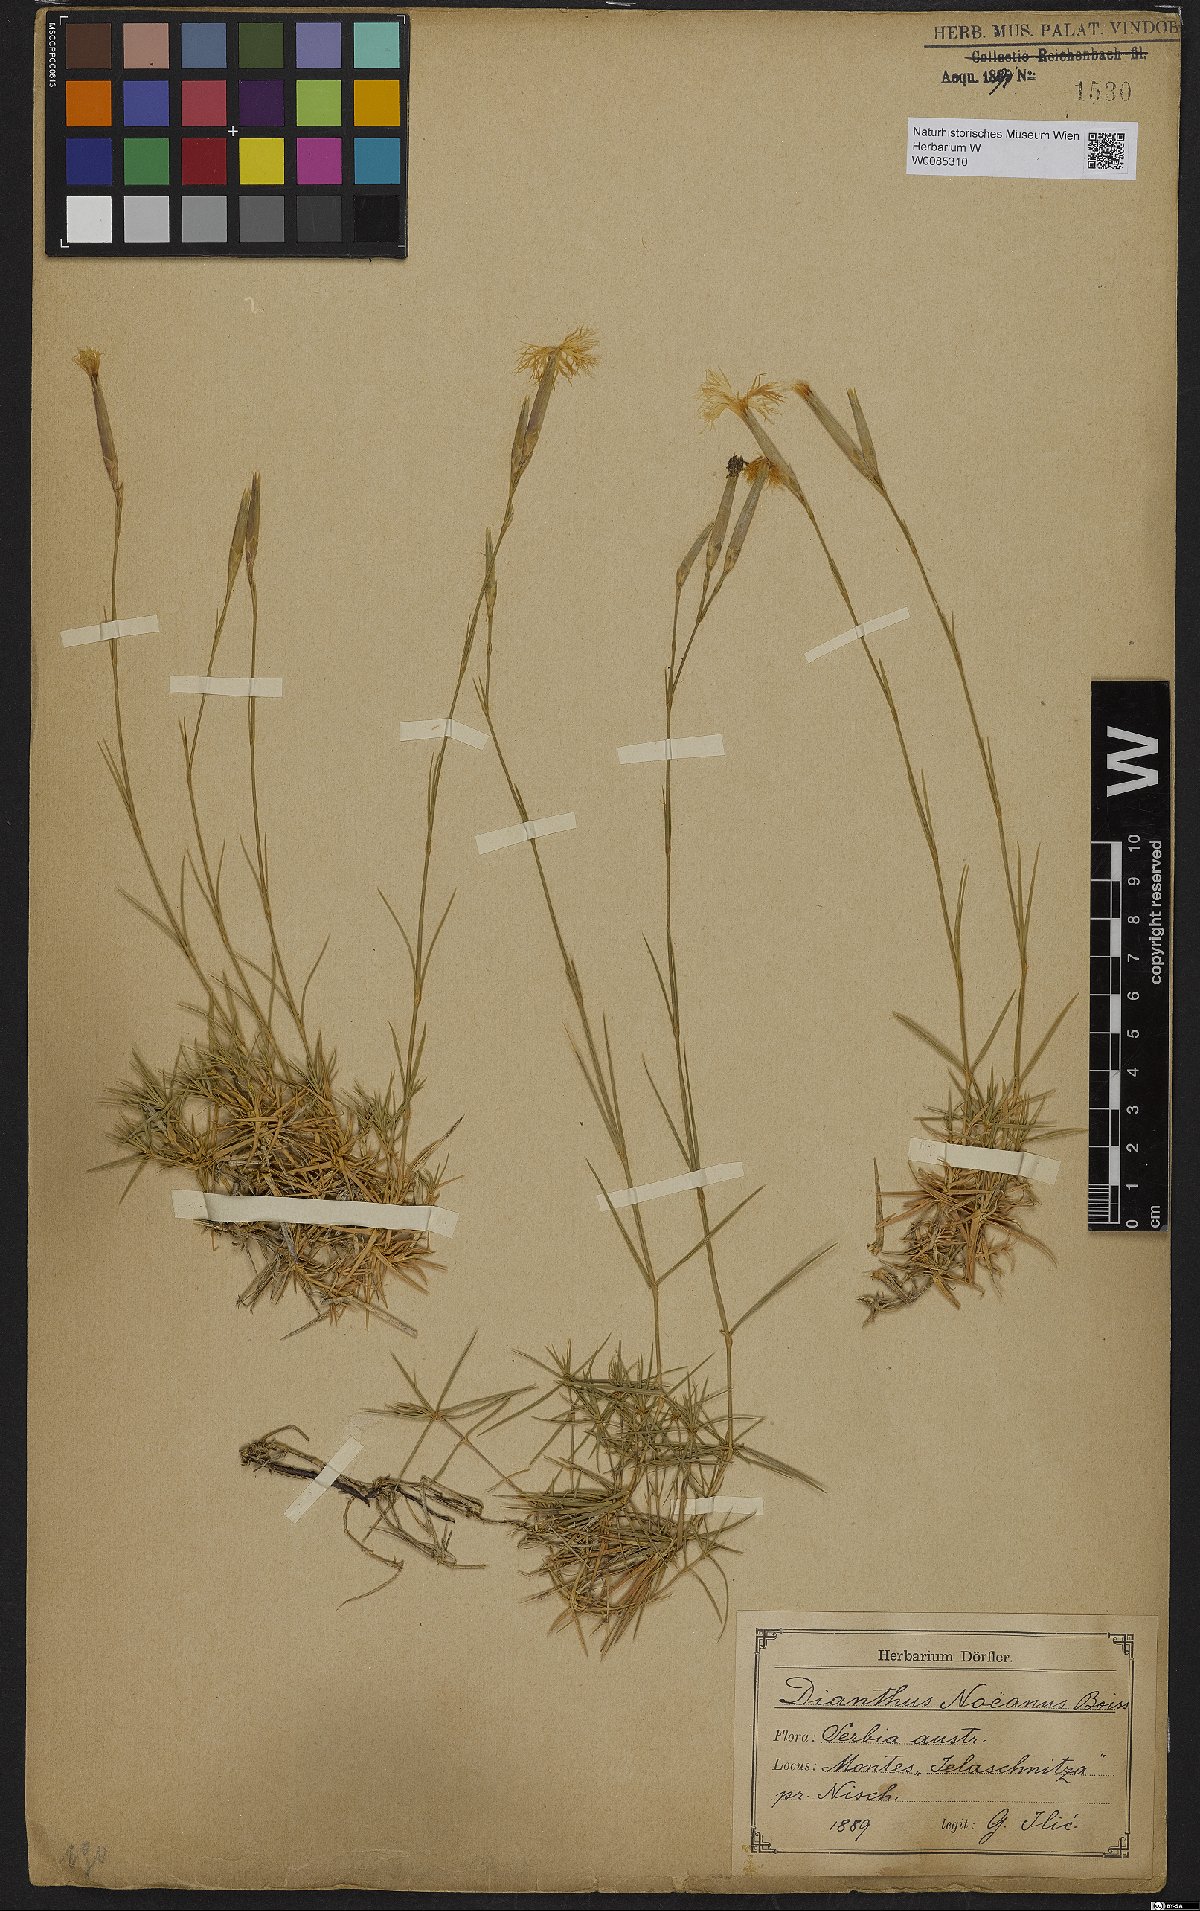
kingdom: Plantae
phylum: Tracheophyta
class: Magnoliopsida
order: Caryophyllales
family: Caryophyllaceae
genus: Dianthus
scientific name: Dianthus petraeus
